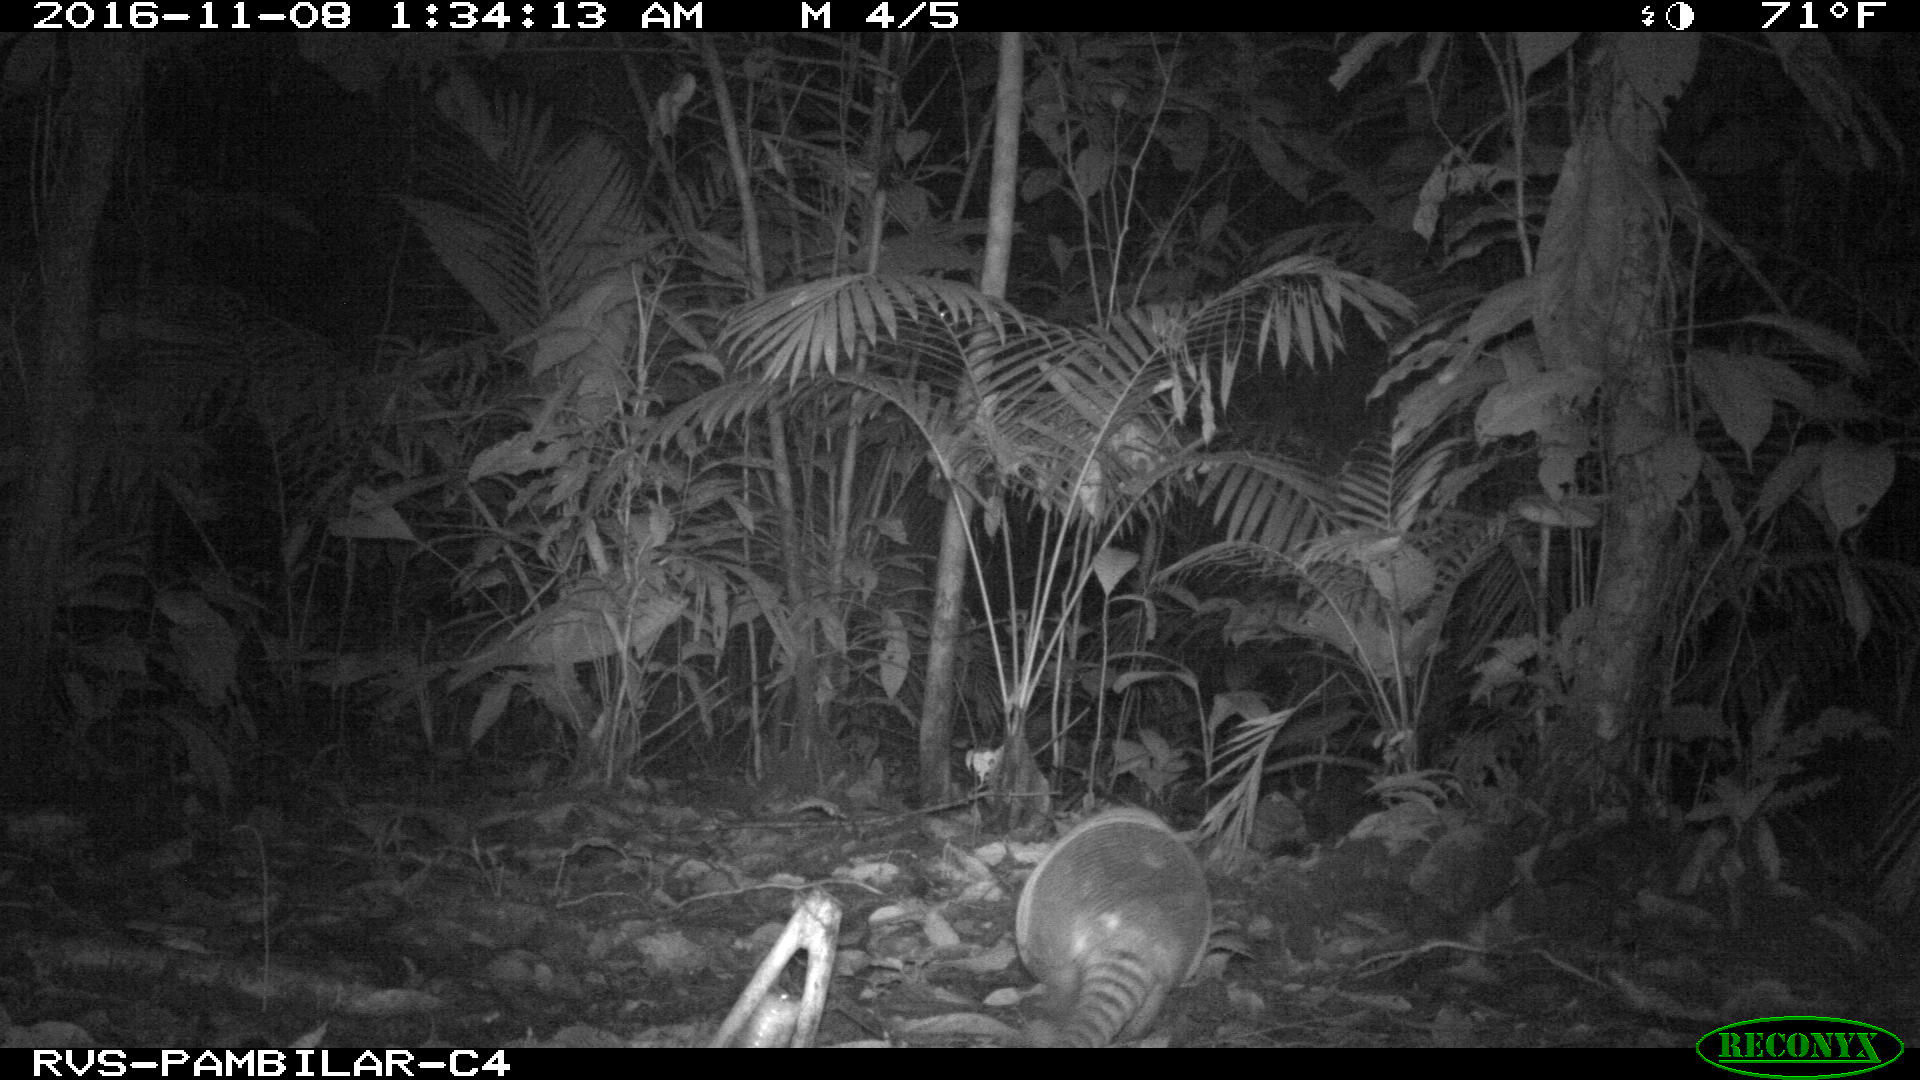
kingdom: Animalia
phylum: Chordata
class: Mammalia
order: Cingulata
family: Dasypodidae
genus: Dasypus
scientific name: Dasypus novemcinctus
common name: Nine-banded armadillo
